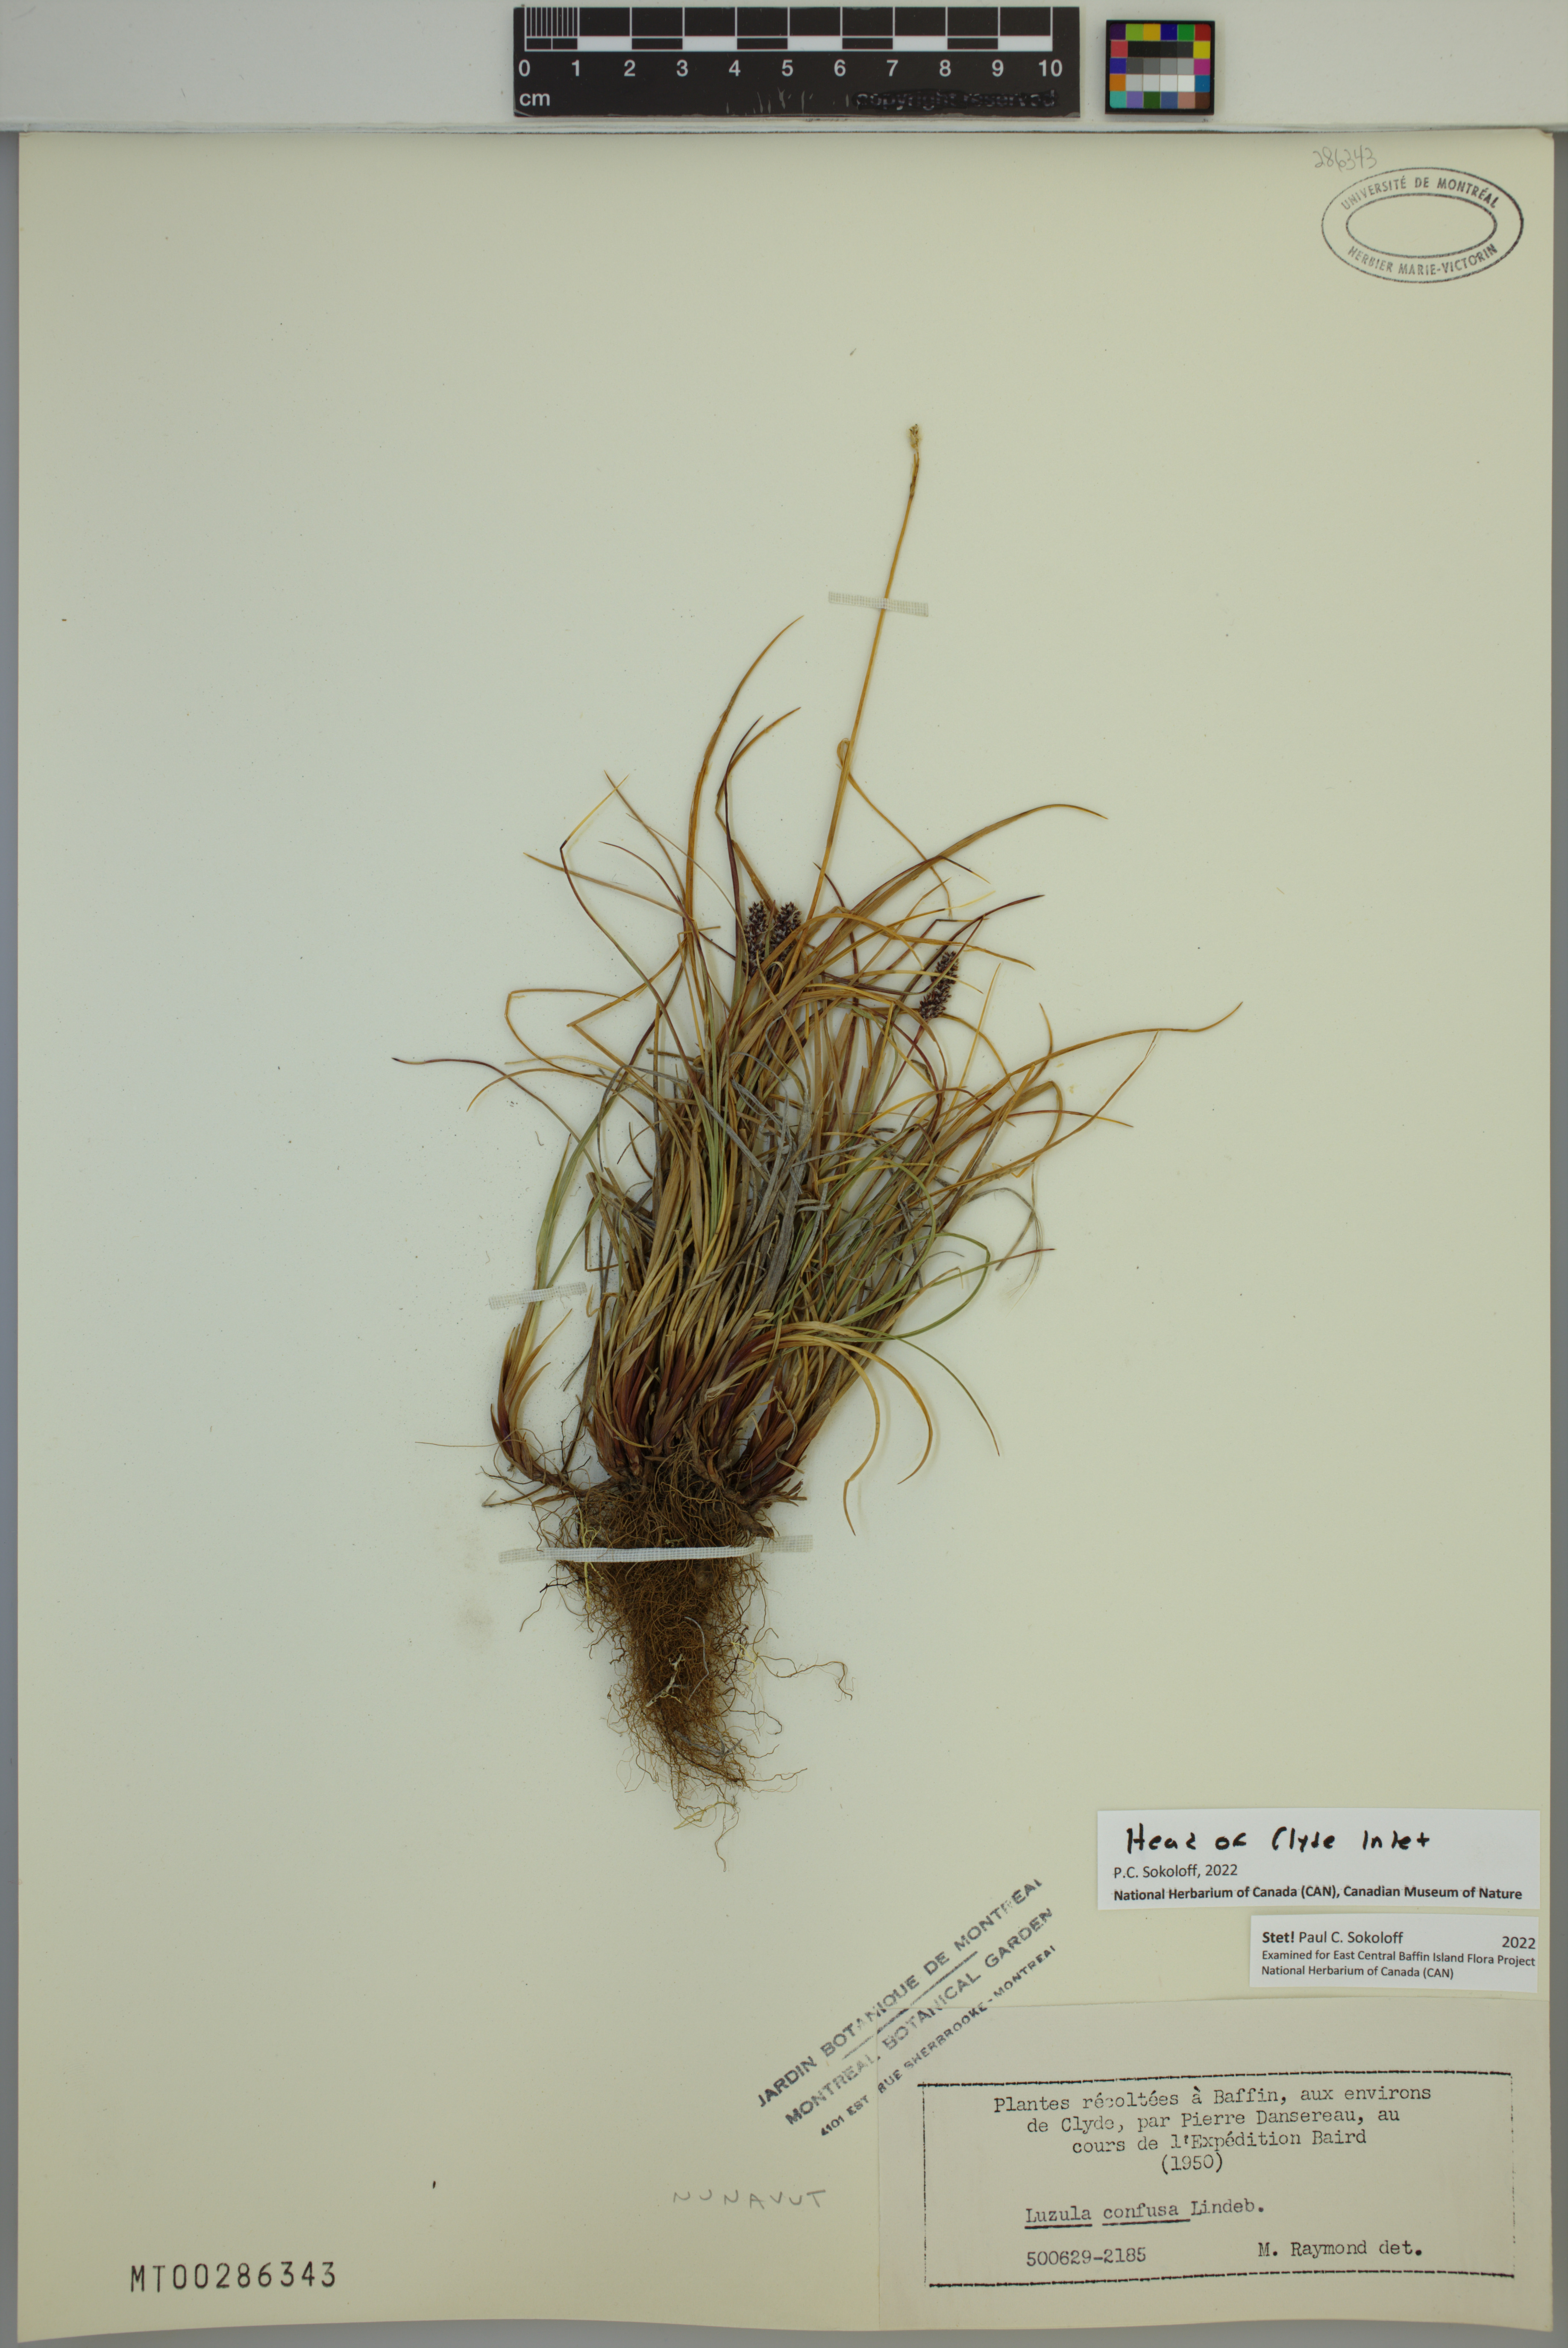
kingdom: Plantae
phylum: Tracheophyta
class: Liliopsida
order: Poales
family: Juncaceae
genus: Luzula
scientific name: Luzula confusa
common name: Northern wood rush
